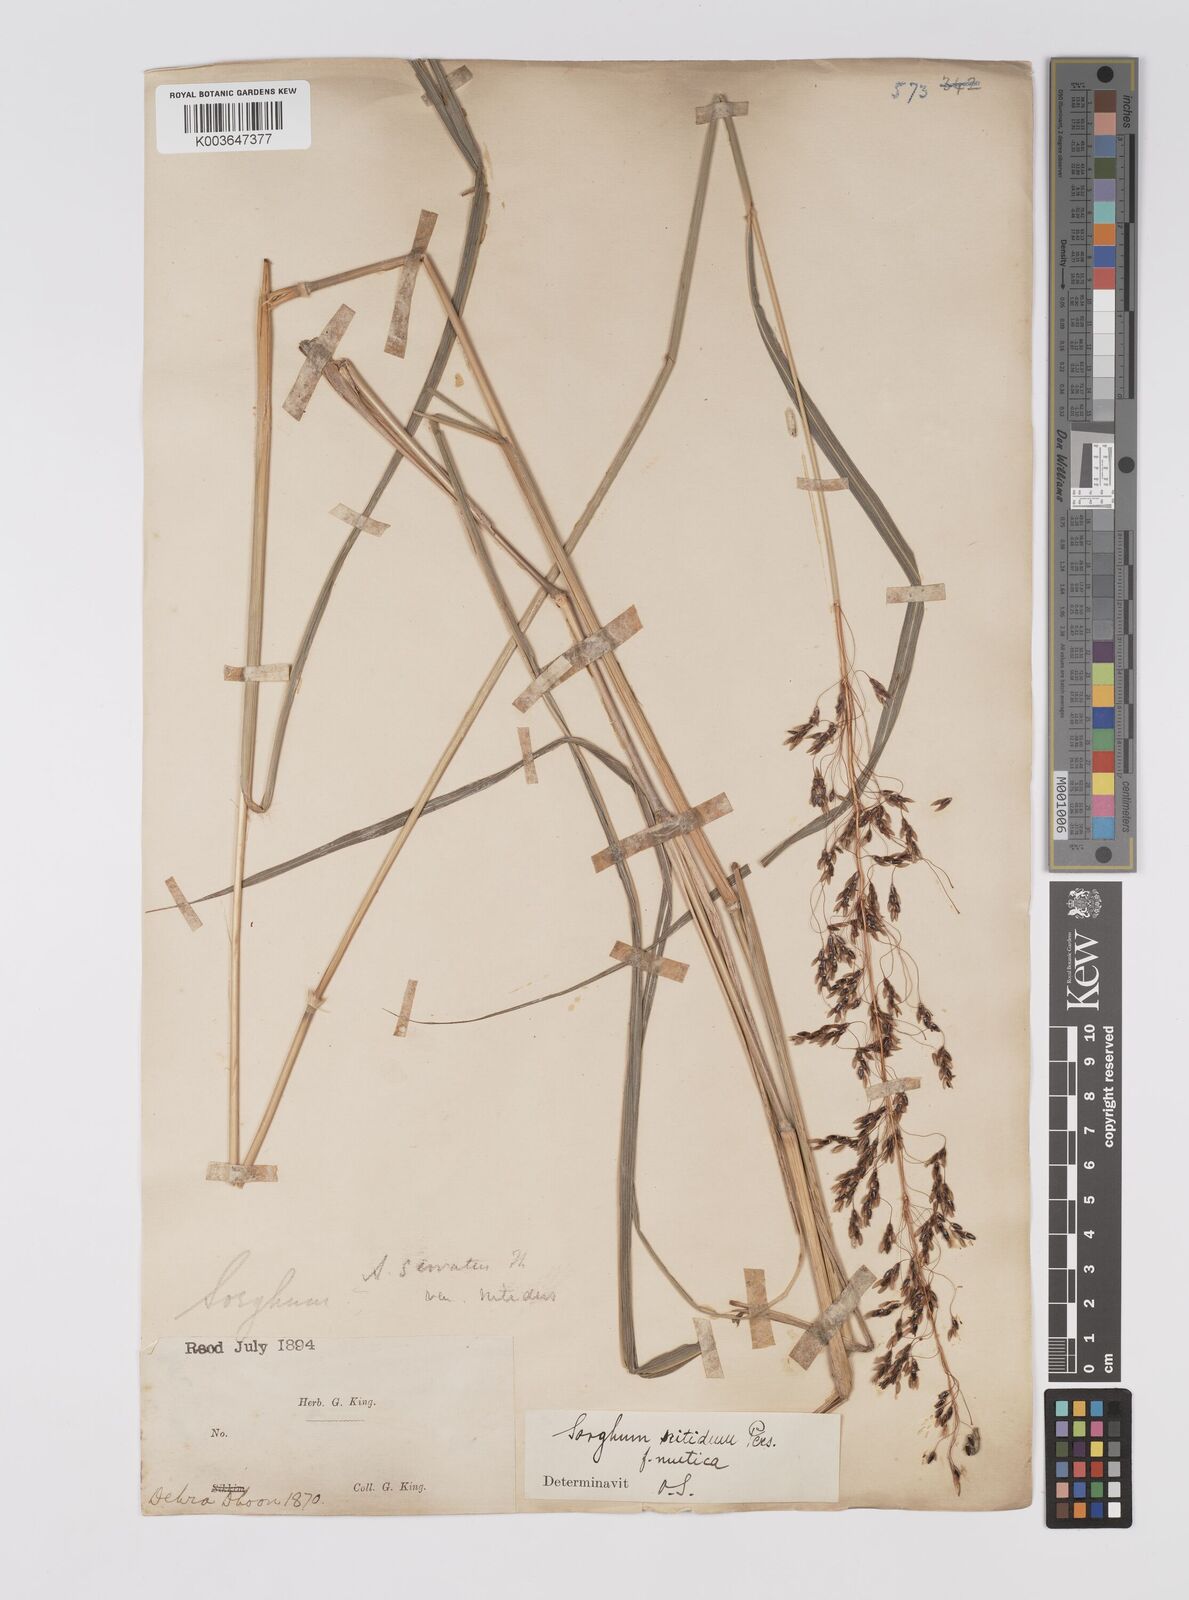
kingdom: Plantae
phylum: Tracheophyta
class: Liliopsida
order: Poales
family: Poaceae
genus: Sorghum
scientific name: Sorghum nitidum
